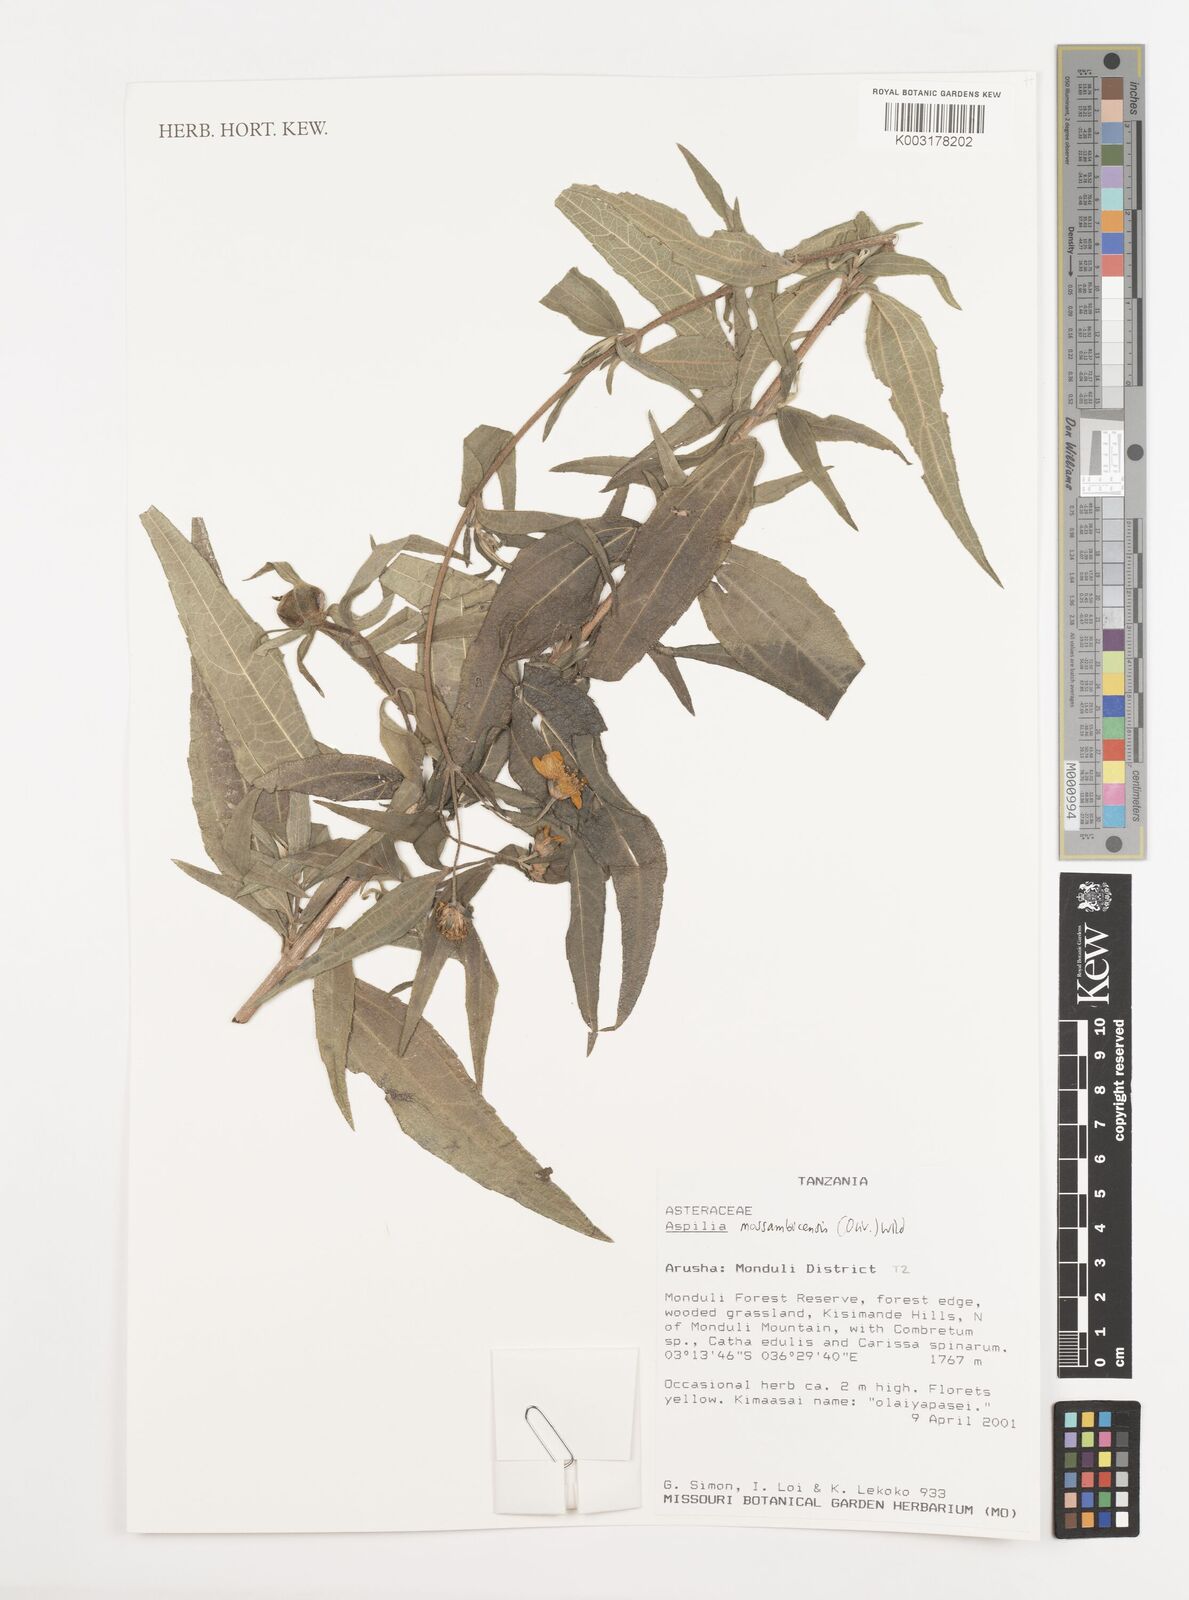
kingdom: Plantae
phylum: Tracheophyta
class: Magnoliopsida
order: Asterales
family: Asteraceae
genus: Aspilia
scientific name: Aspilia mossambicensis
